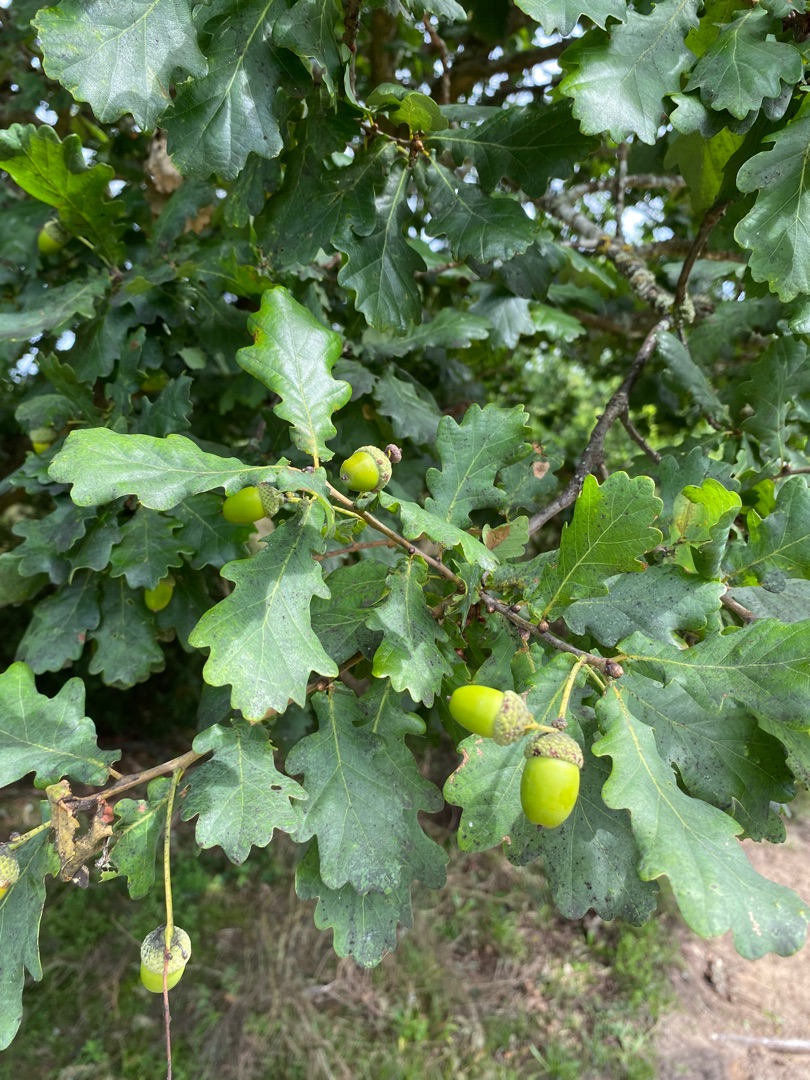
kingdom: Plantae
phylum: Tracheophyta
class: Magnoliopsida
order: Fagales
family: Fagaceae
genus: Quercus
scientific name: Quercus robur
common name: Stilk-eg/almindelig eg
